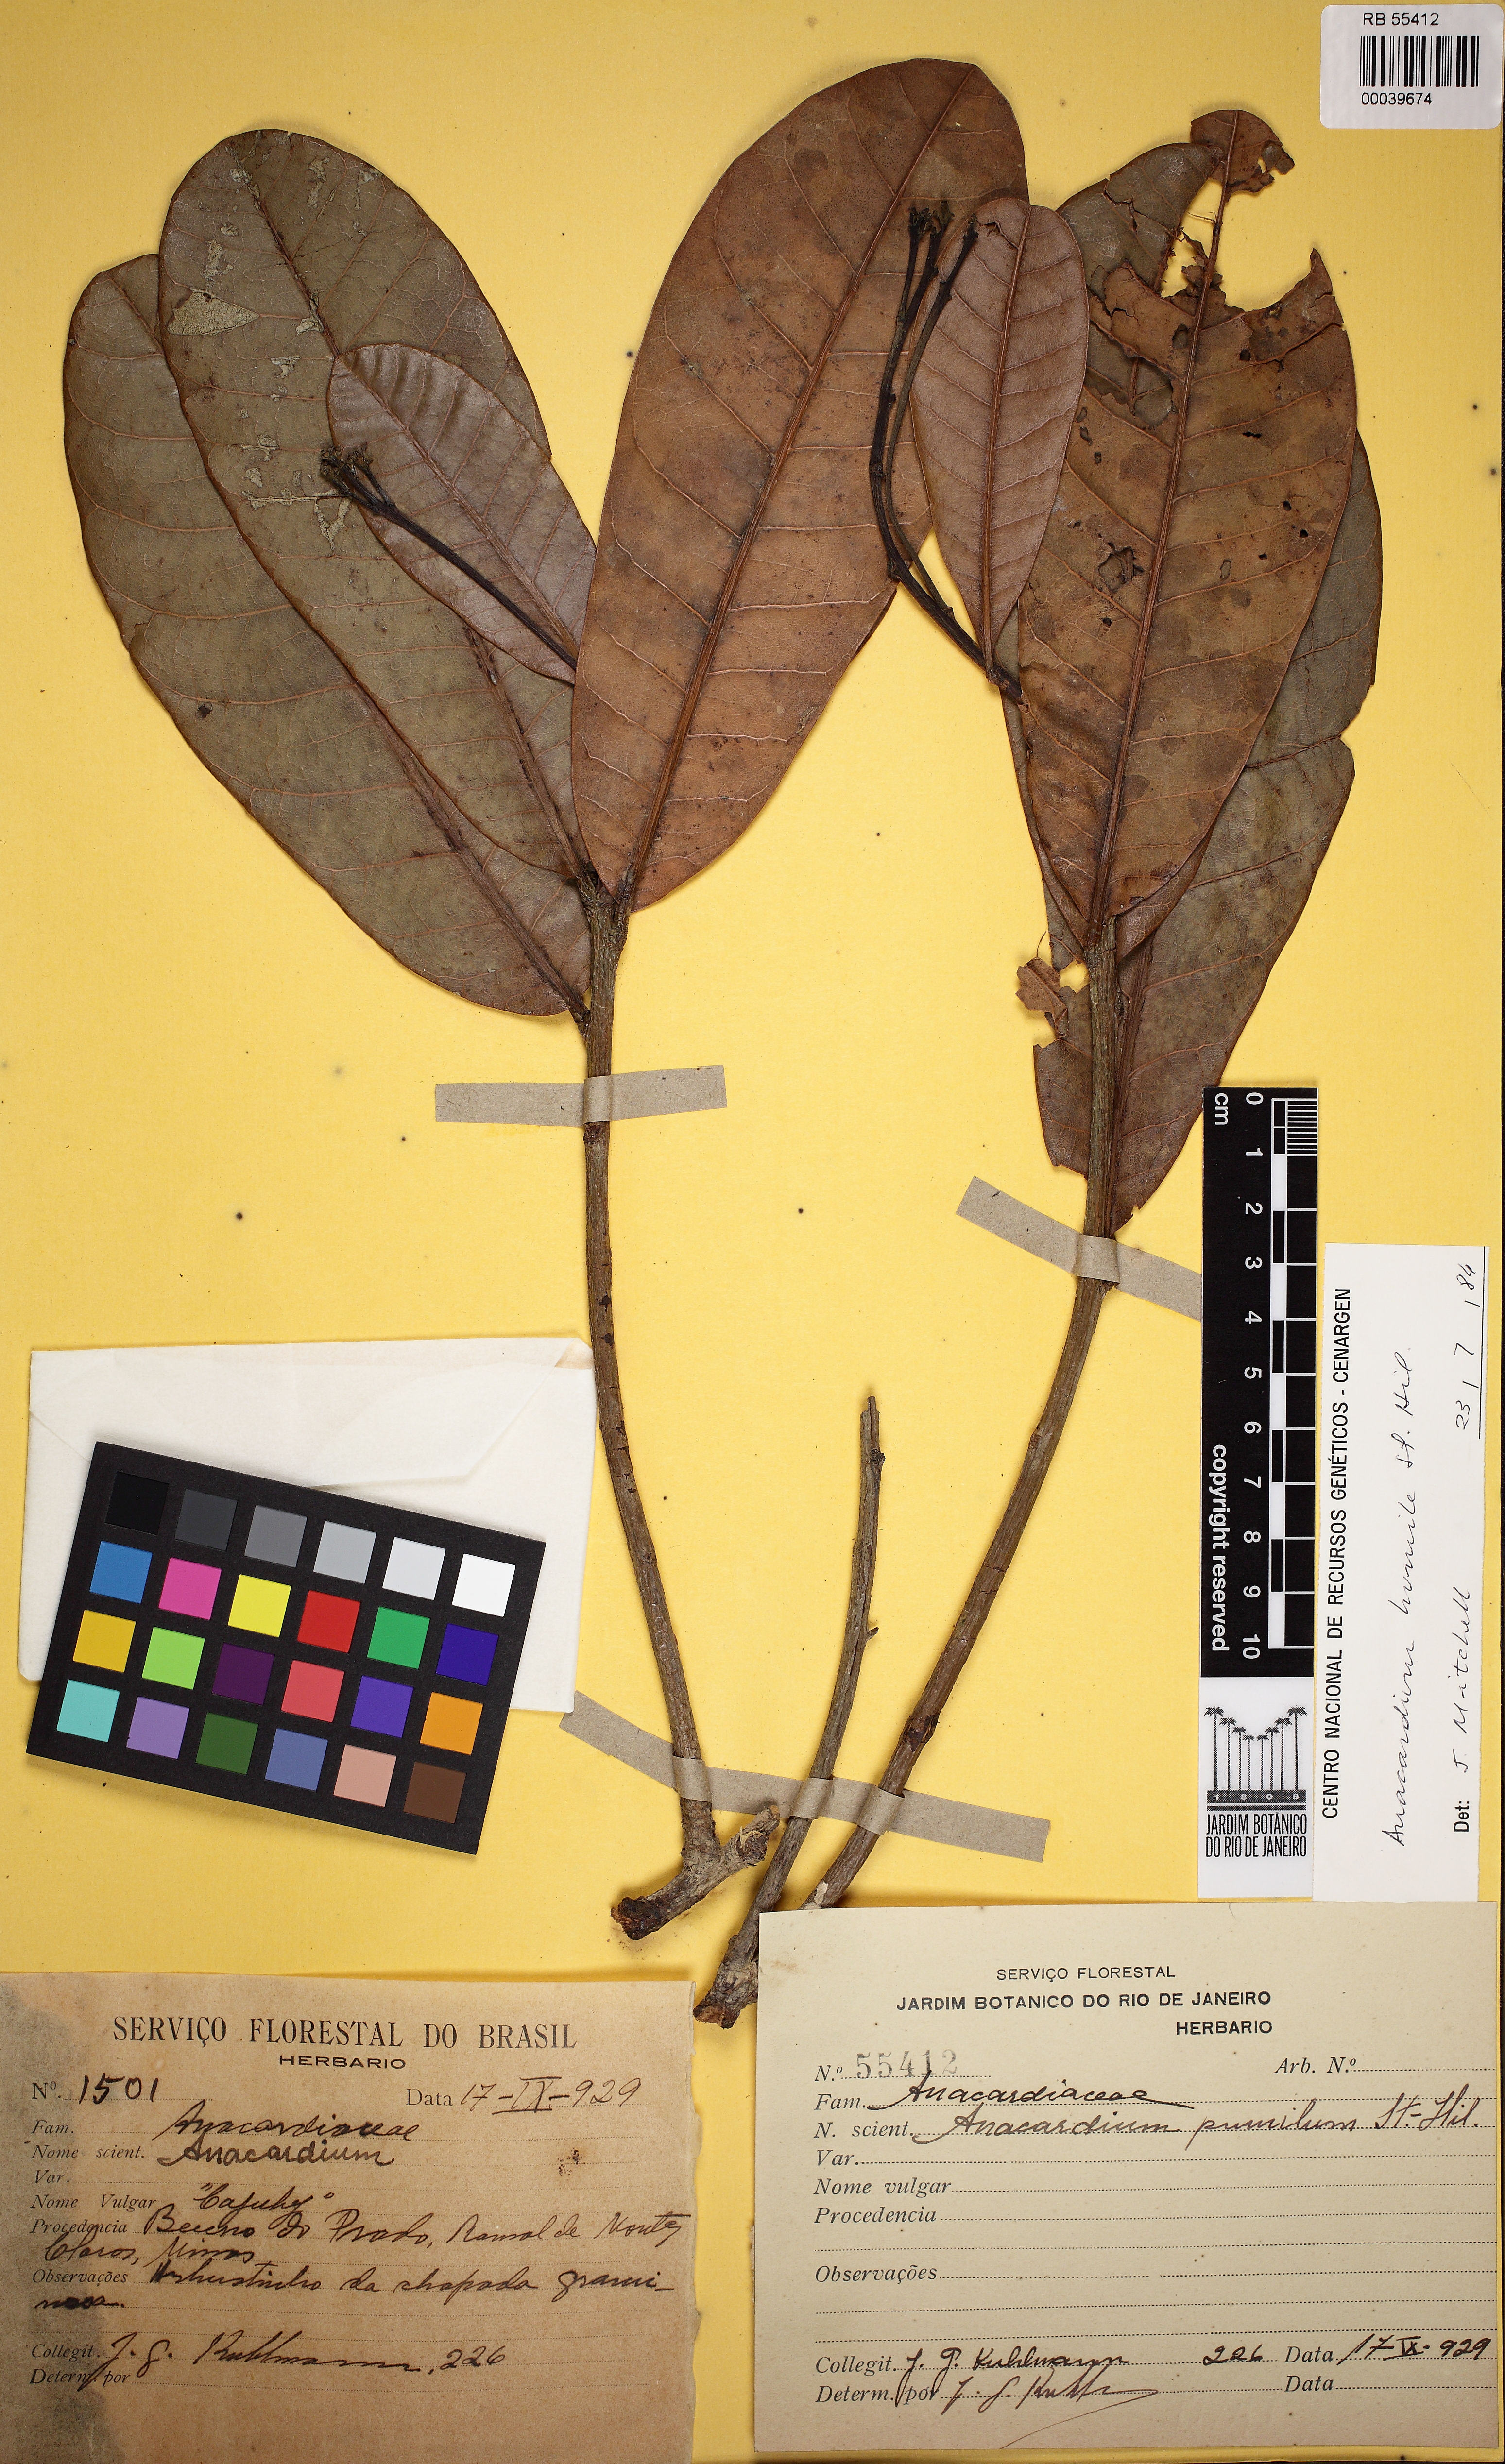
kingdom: Plantae
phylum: Tracheophyta
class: Magnoliopsida
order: Sapindales
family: Anacardiaceae
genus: Anacardium
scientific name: Anacardium humile
